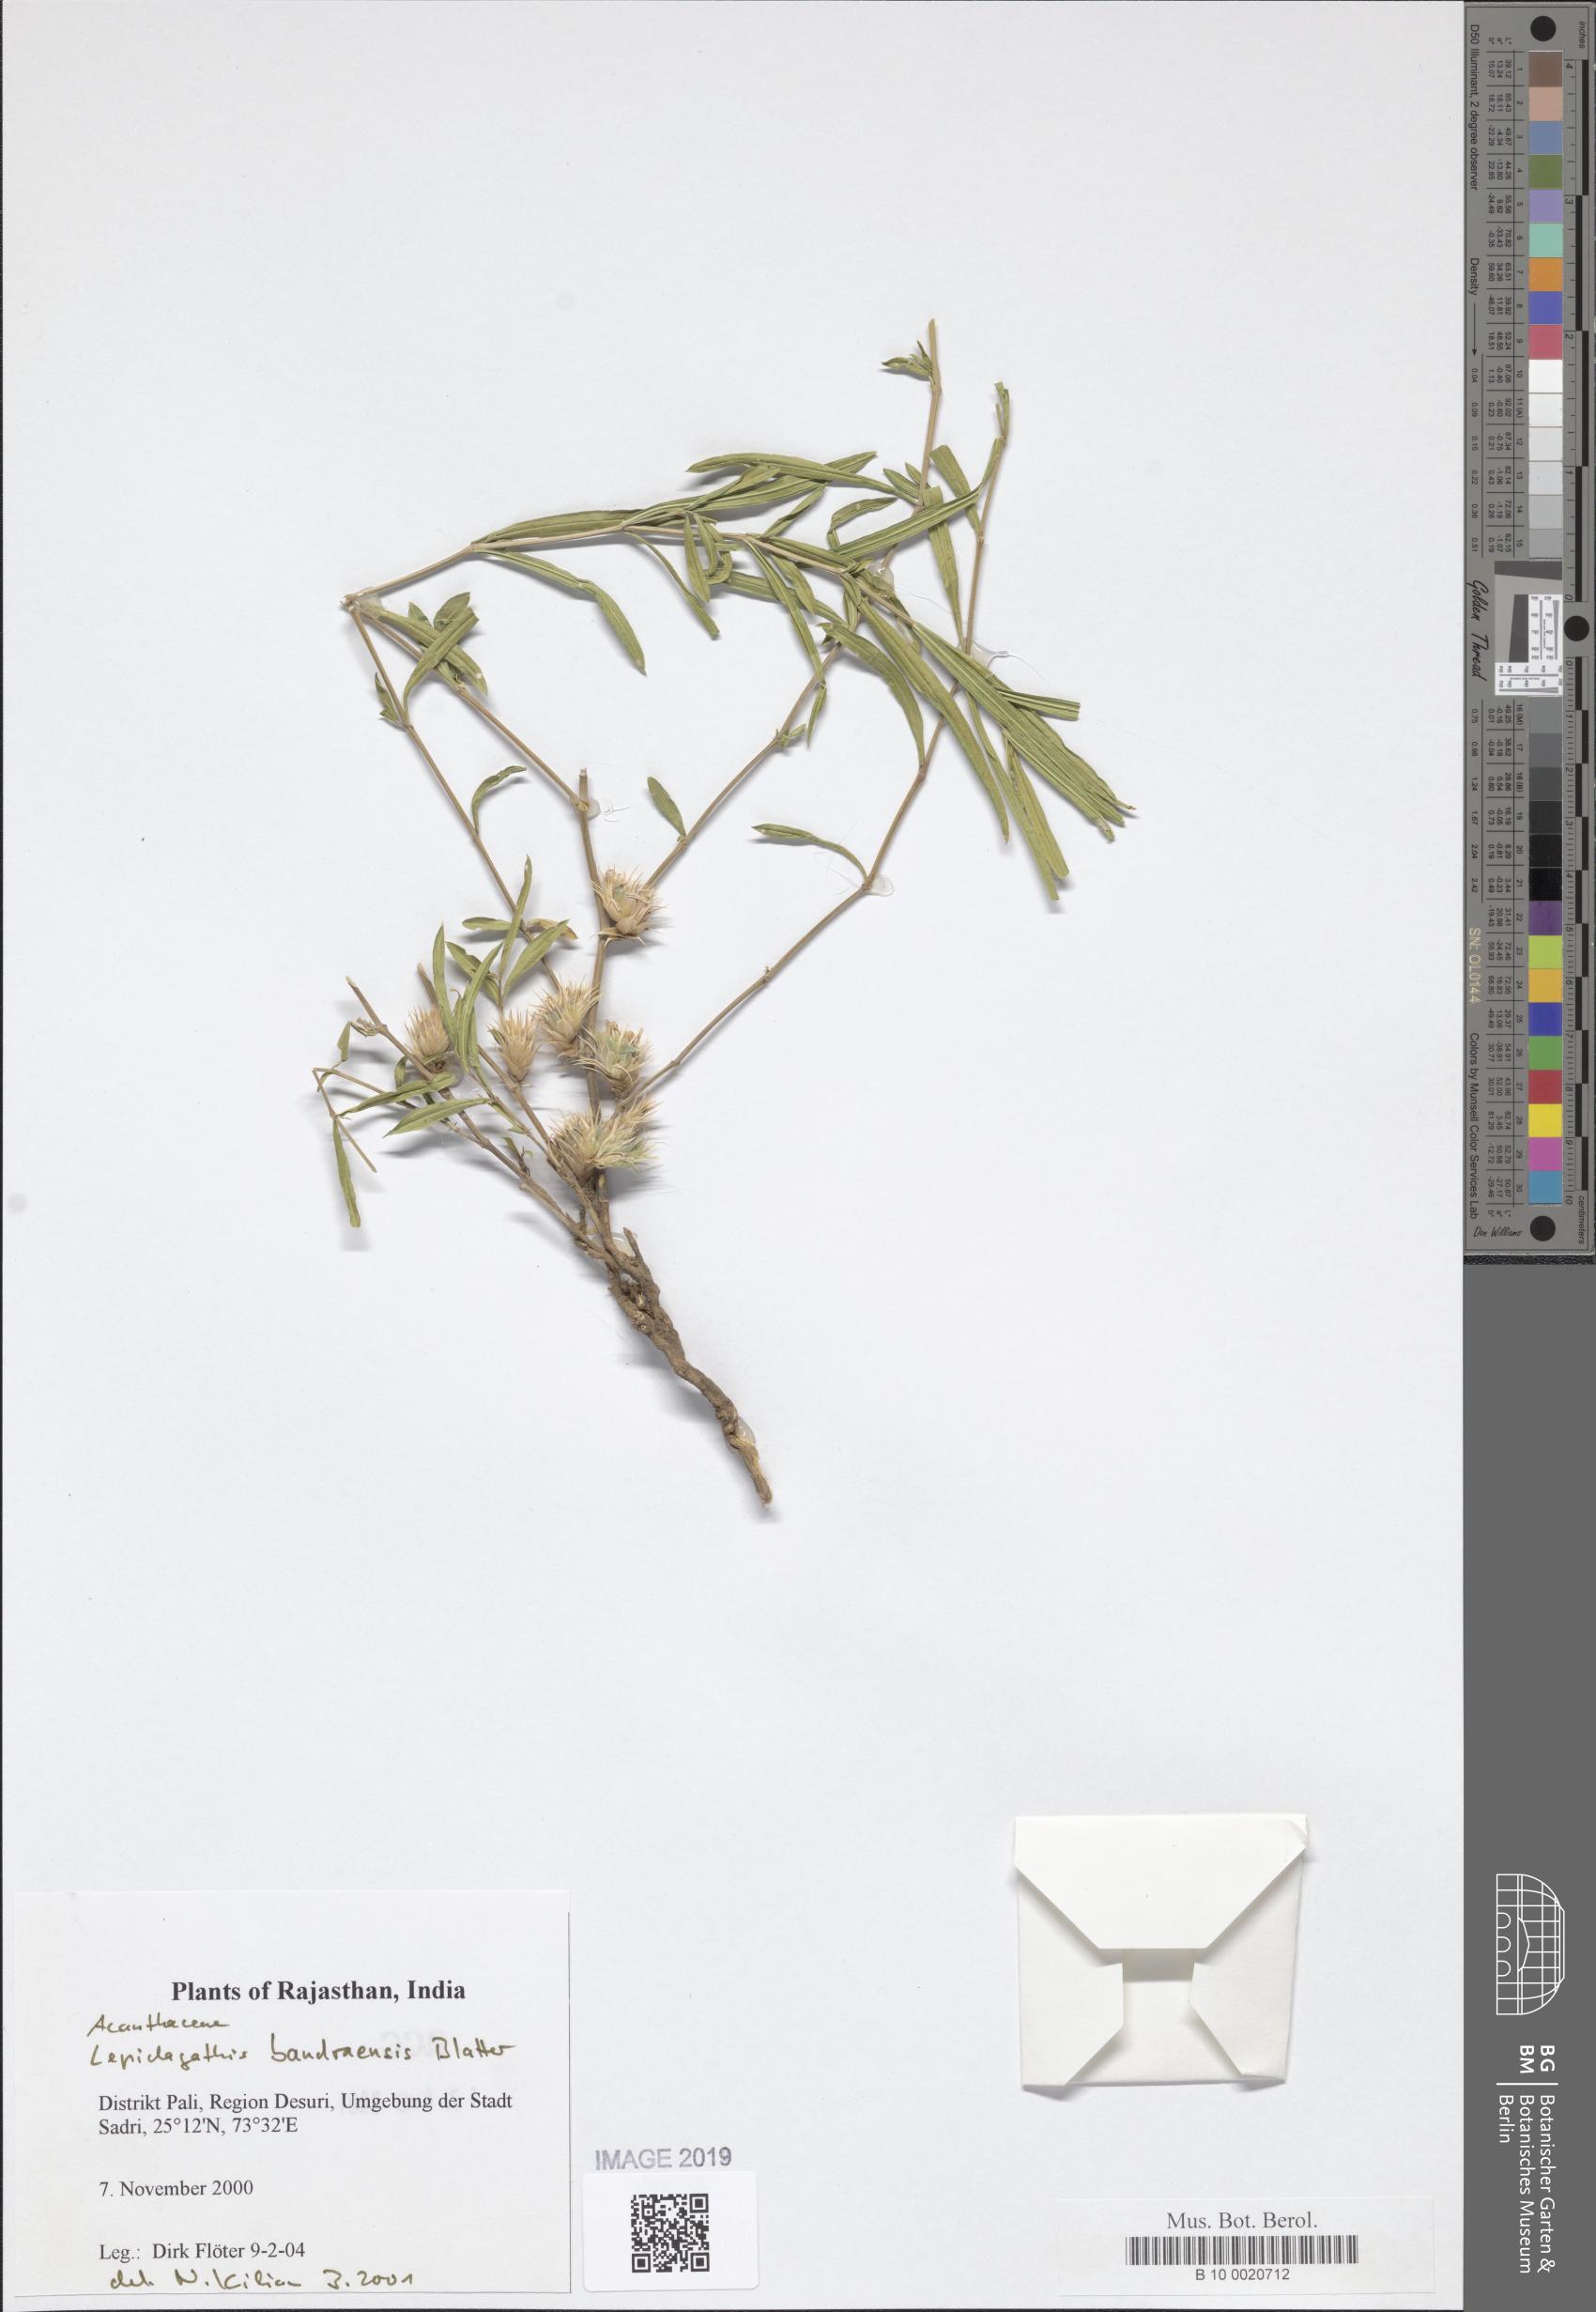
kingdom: Plantae
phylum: Tracheophyta
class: Magnoliopsida
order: Lamiales
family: Acanthaceae
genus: Lepidagathis
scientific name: Lepidagathis bandraensis
